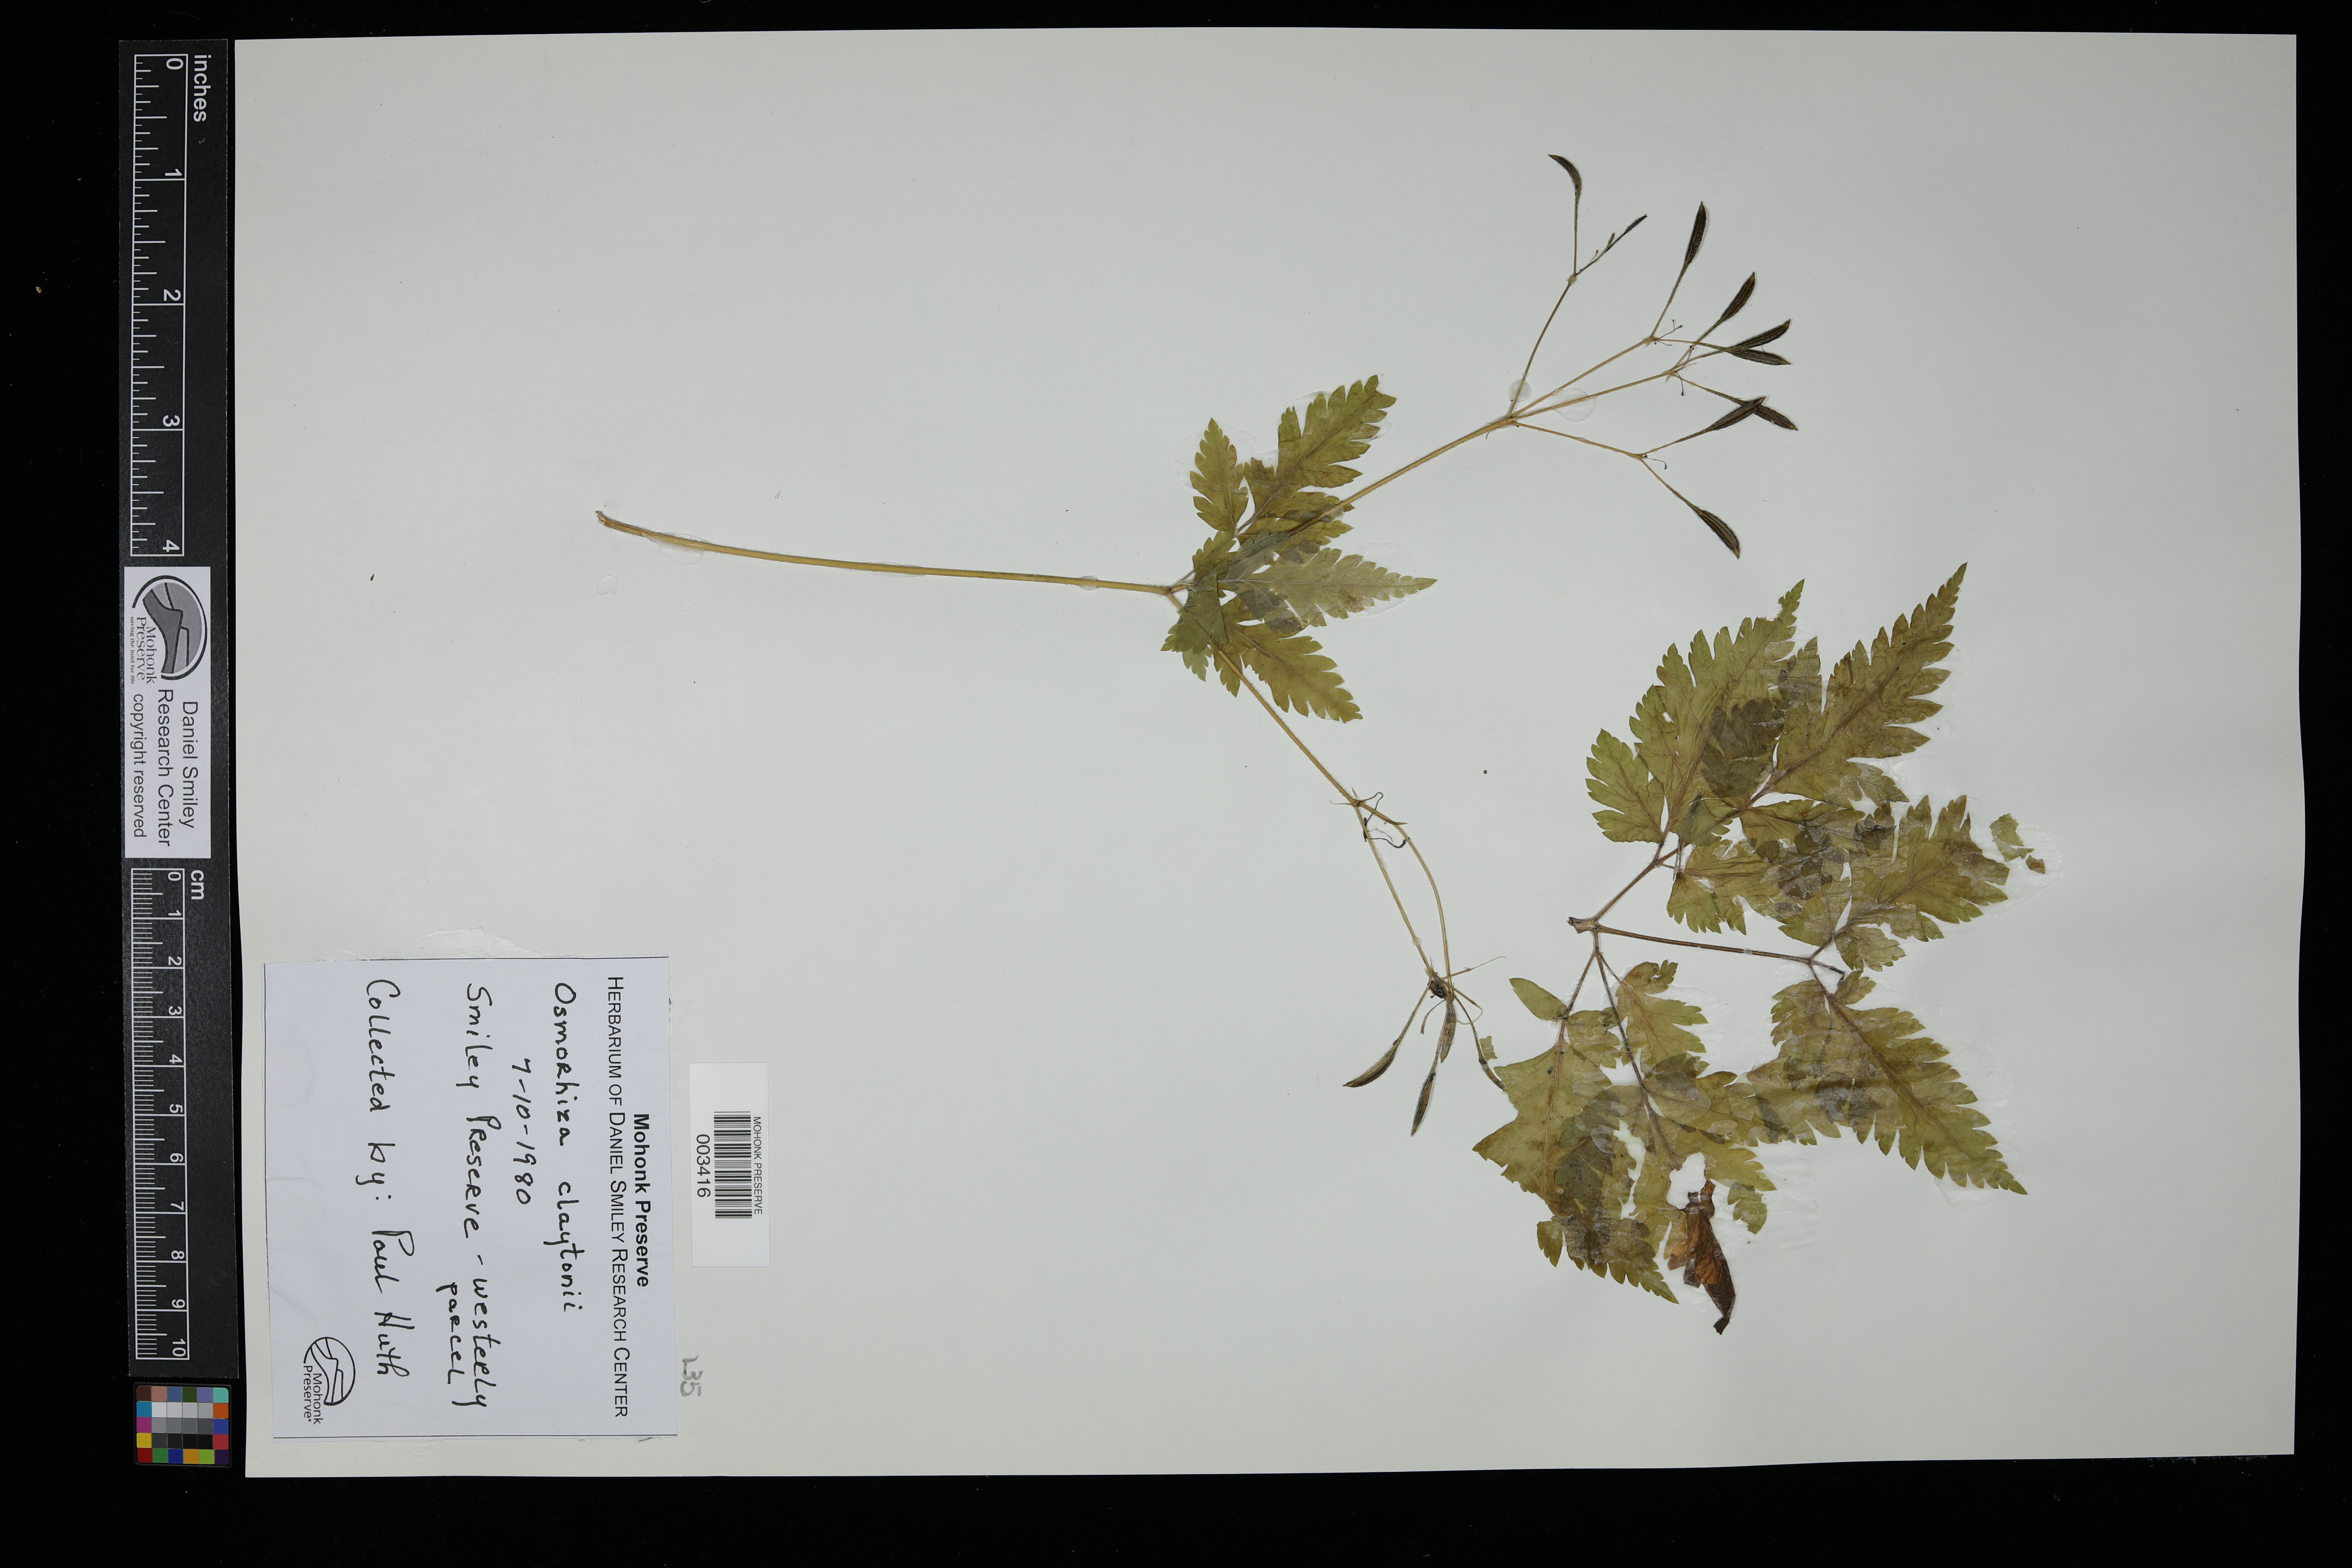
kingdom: Plantae
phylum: Tracheophyta
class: Magnoliopsida
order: Apiales
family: Apiaceae
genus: Osmorhiza
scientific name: Osmorhiza aristata
